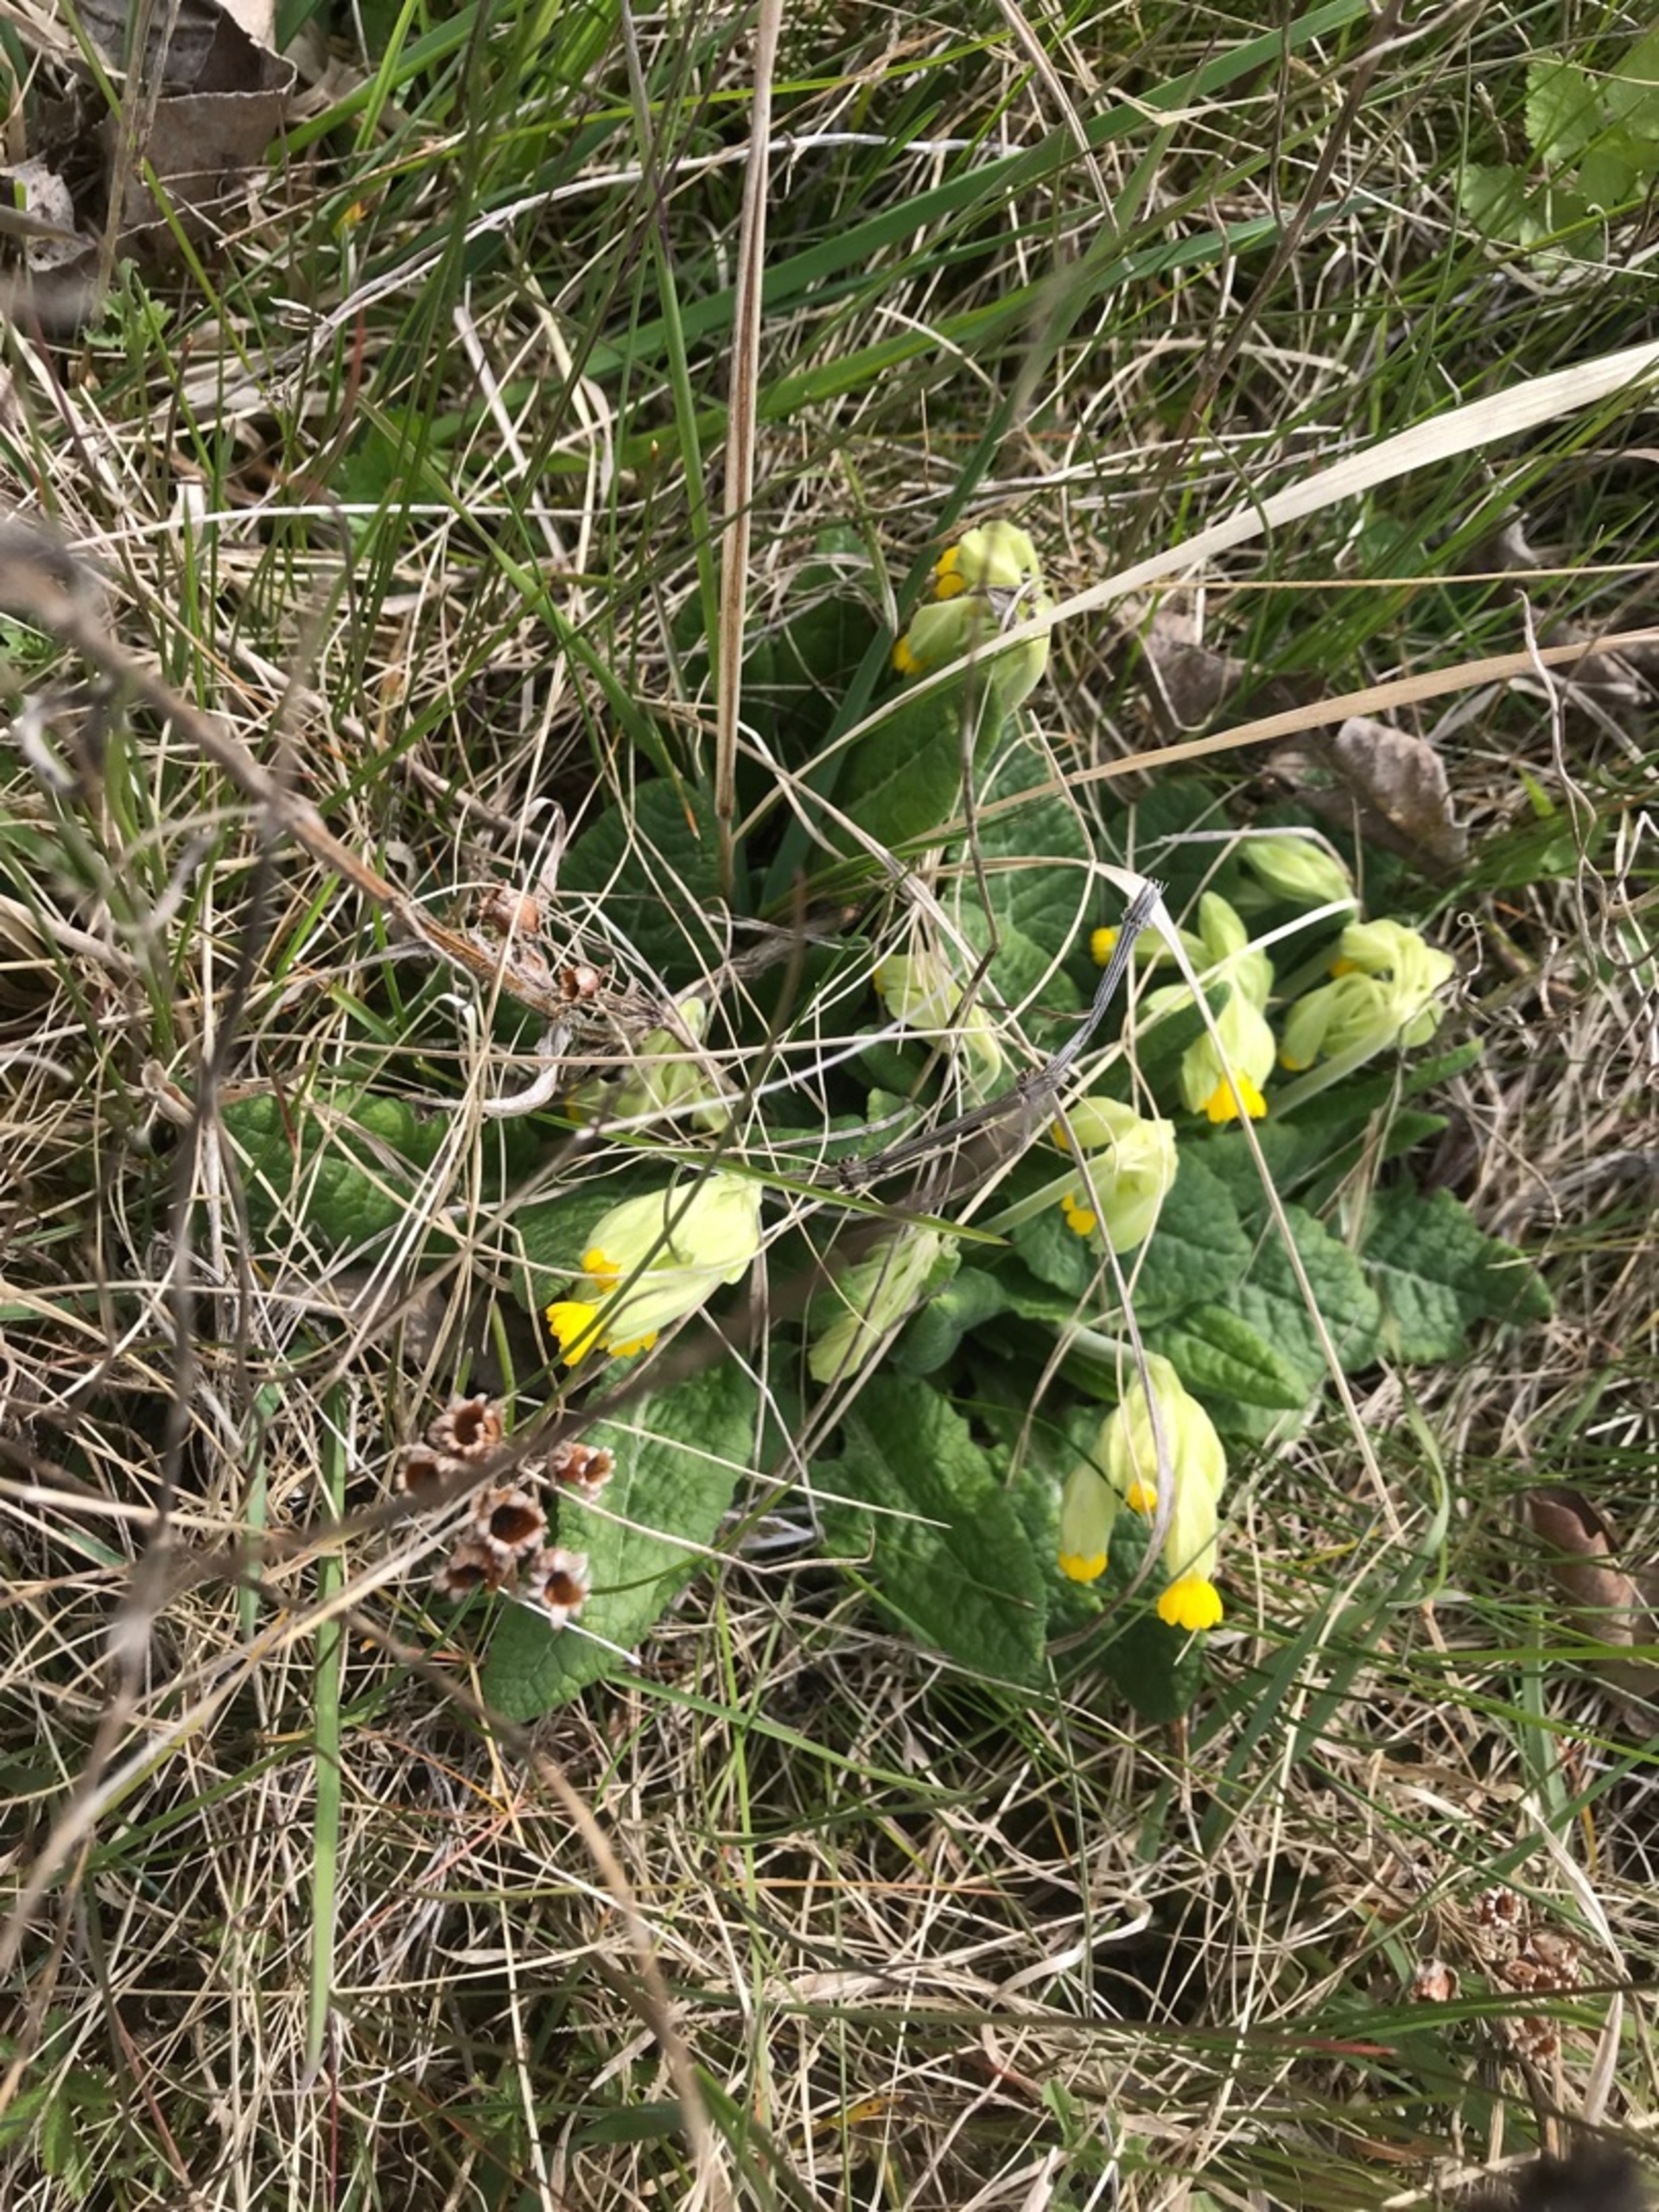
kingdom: Plantae
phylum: Tracheophyta
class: Magnoliopsida
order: Ericales
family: Primulaceae
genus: Primula
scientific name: Primula veris
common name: Hulkravet kodriver
